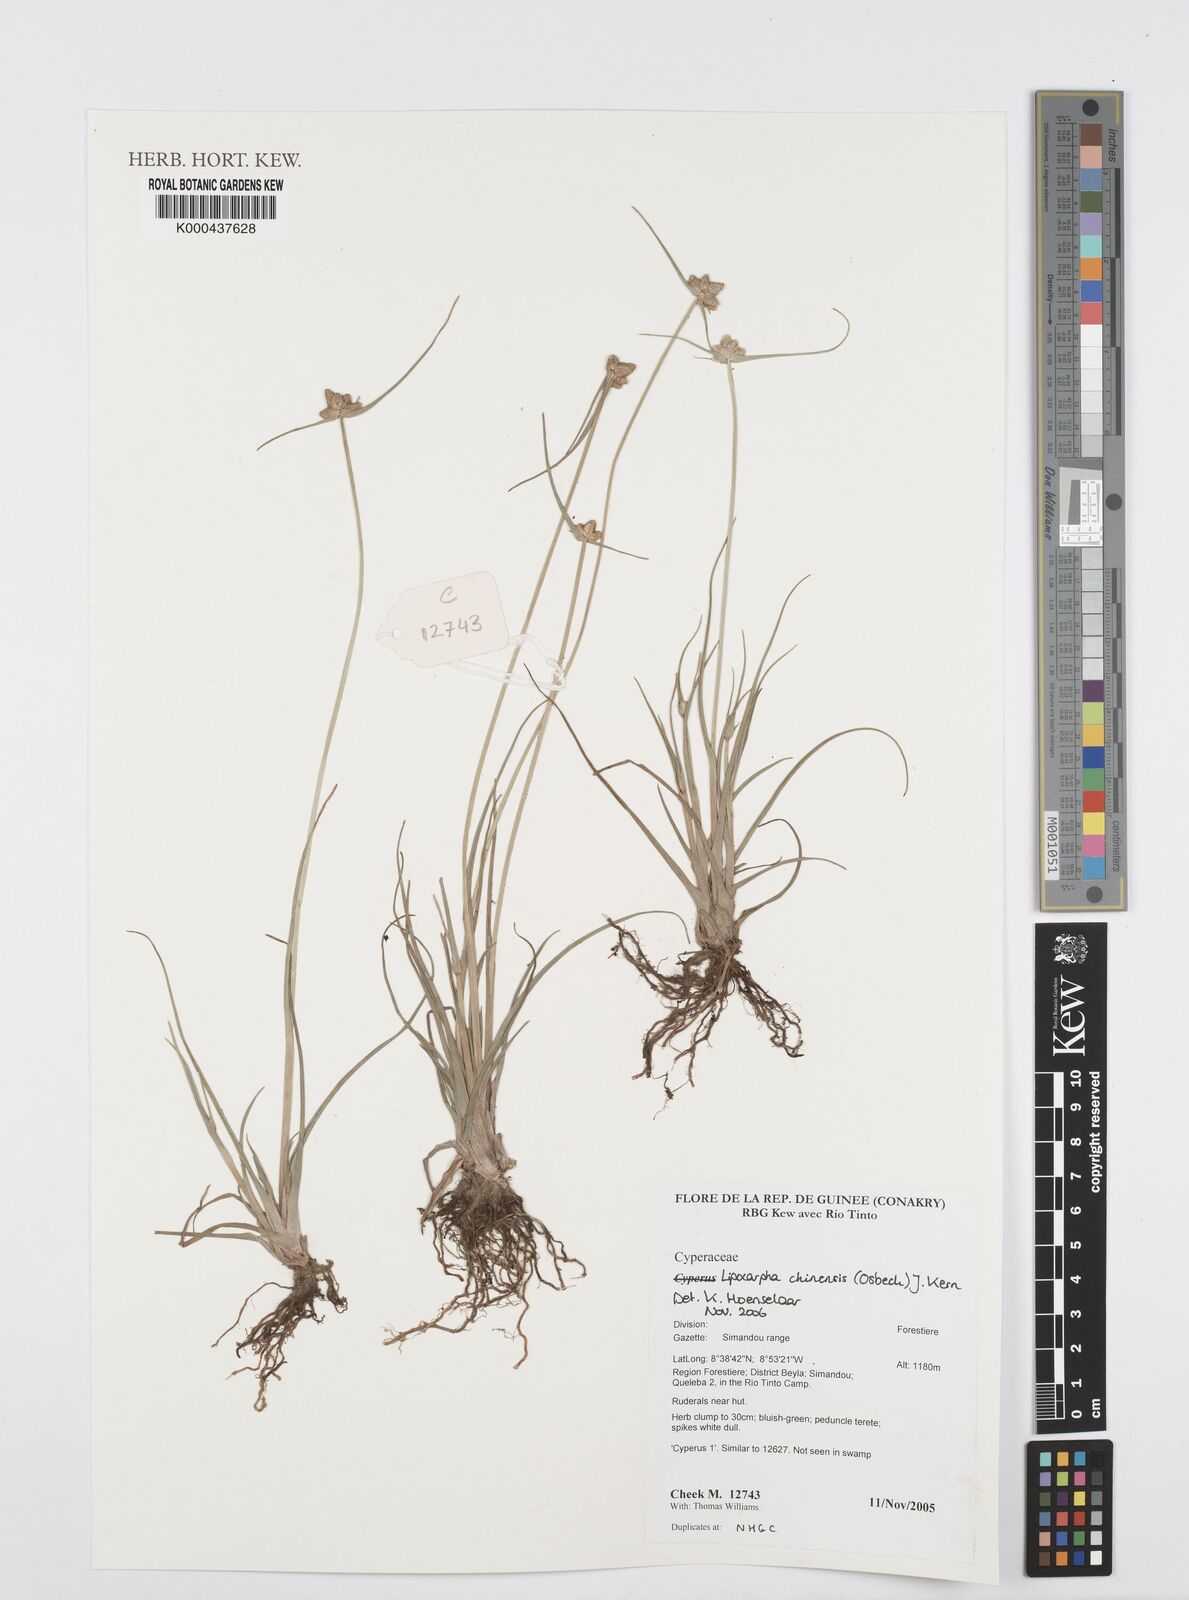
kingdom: Plantae
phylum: Tracheophyta
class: Liliopsida
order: Poales
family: Cyperaceae
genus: Cyperus
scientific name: Cyperus albescens
